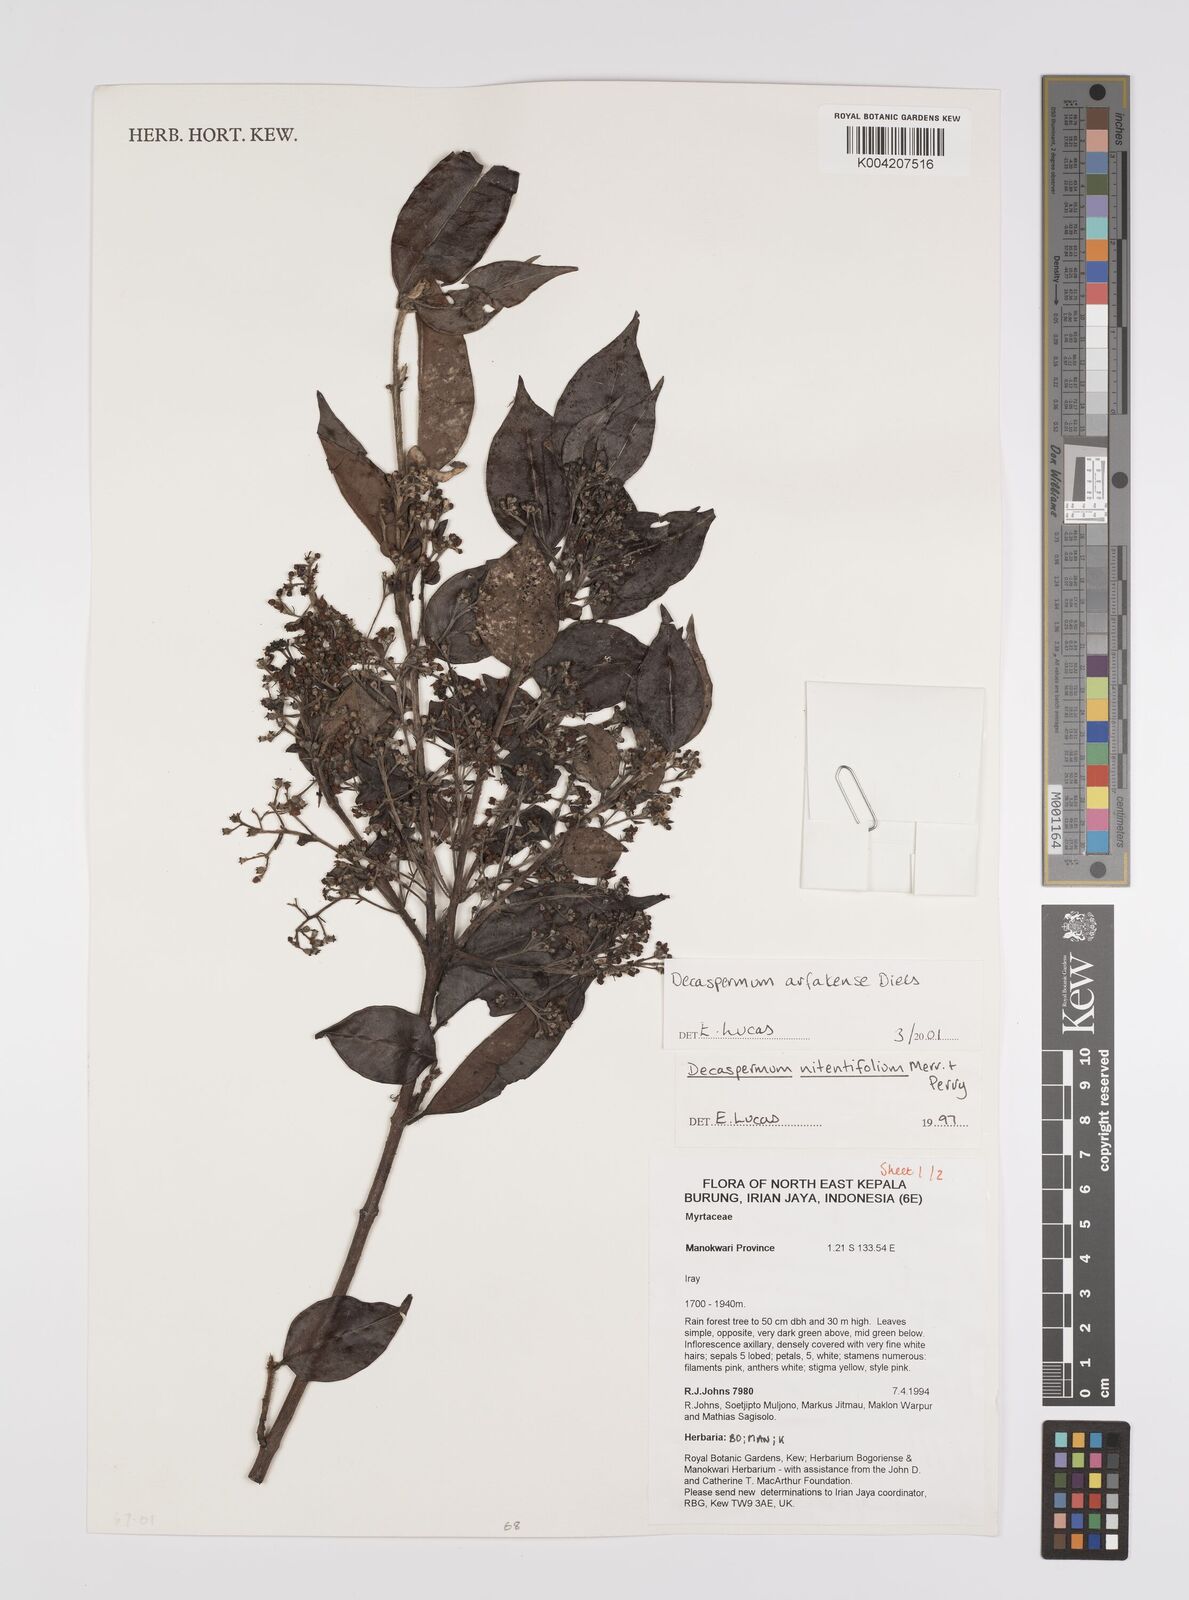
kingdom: Plantae
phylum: Tracheophyta
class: Magnoliopsida
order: Myrtales
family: Myrtaceae
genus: Decaspermum
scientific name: Decaspermum arfakense
